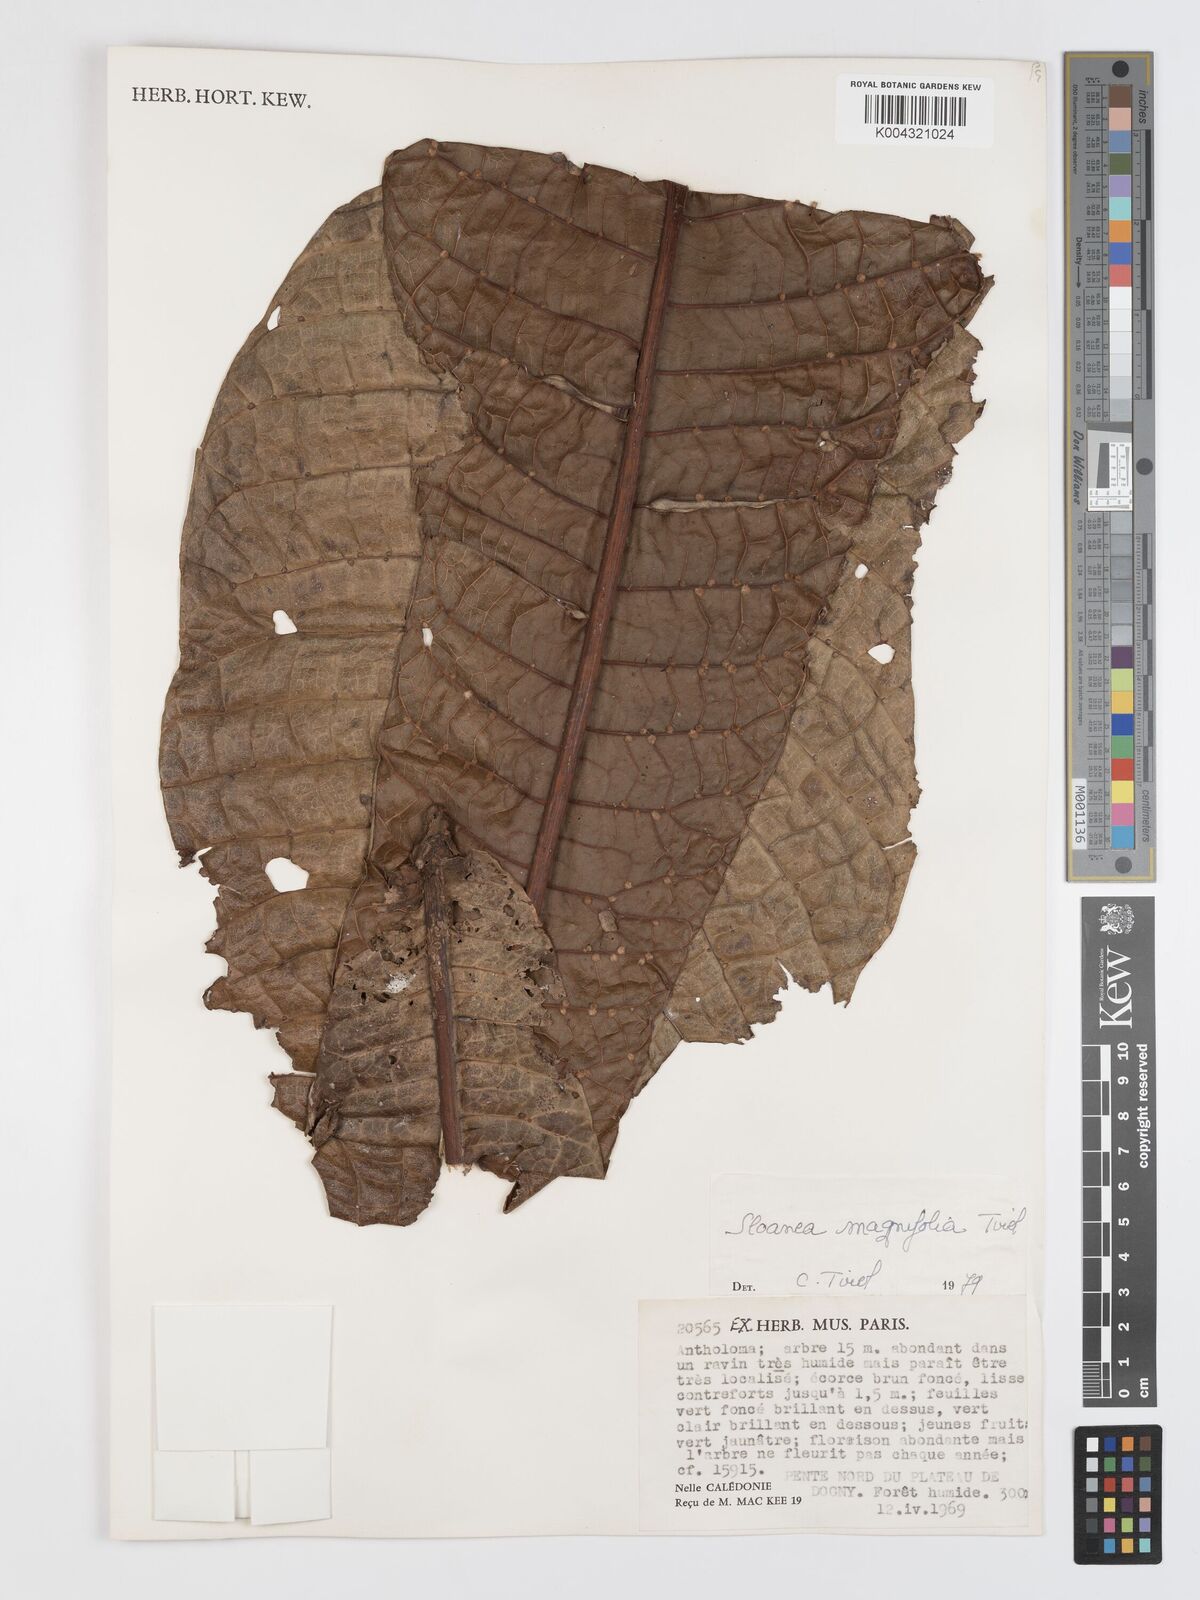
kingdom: Plantae
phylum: Tracheophyta
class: Magnoliopsida
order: Oxalidales
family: Elaeocarpaceae
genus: Sloanea
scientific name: Sloanea magnifolia
